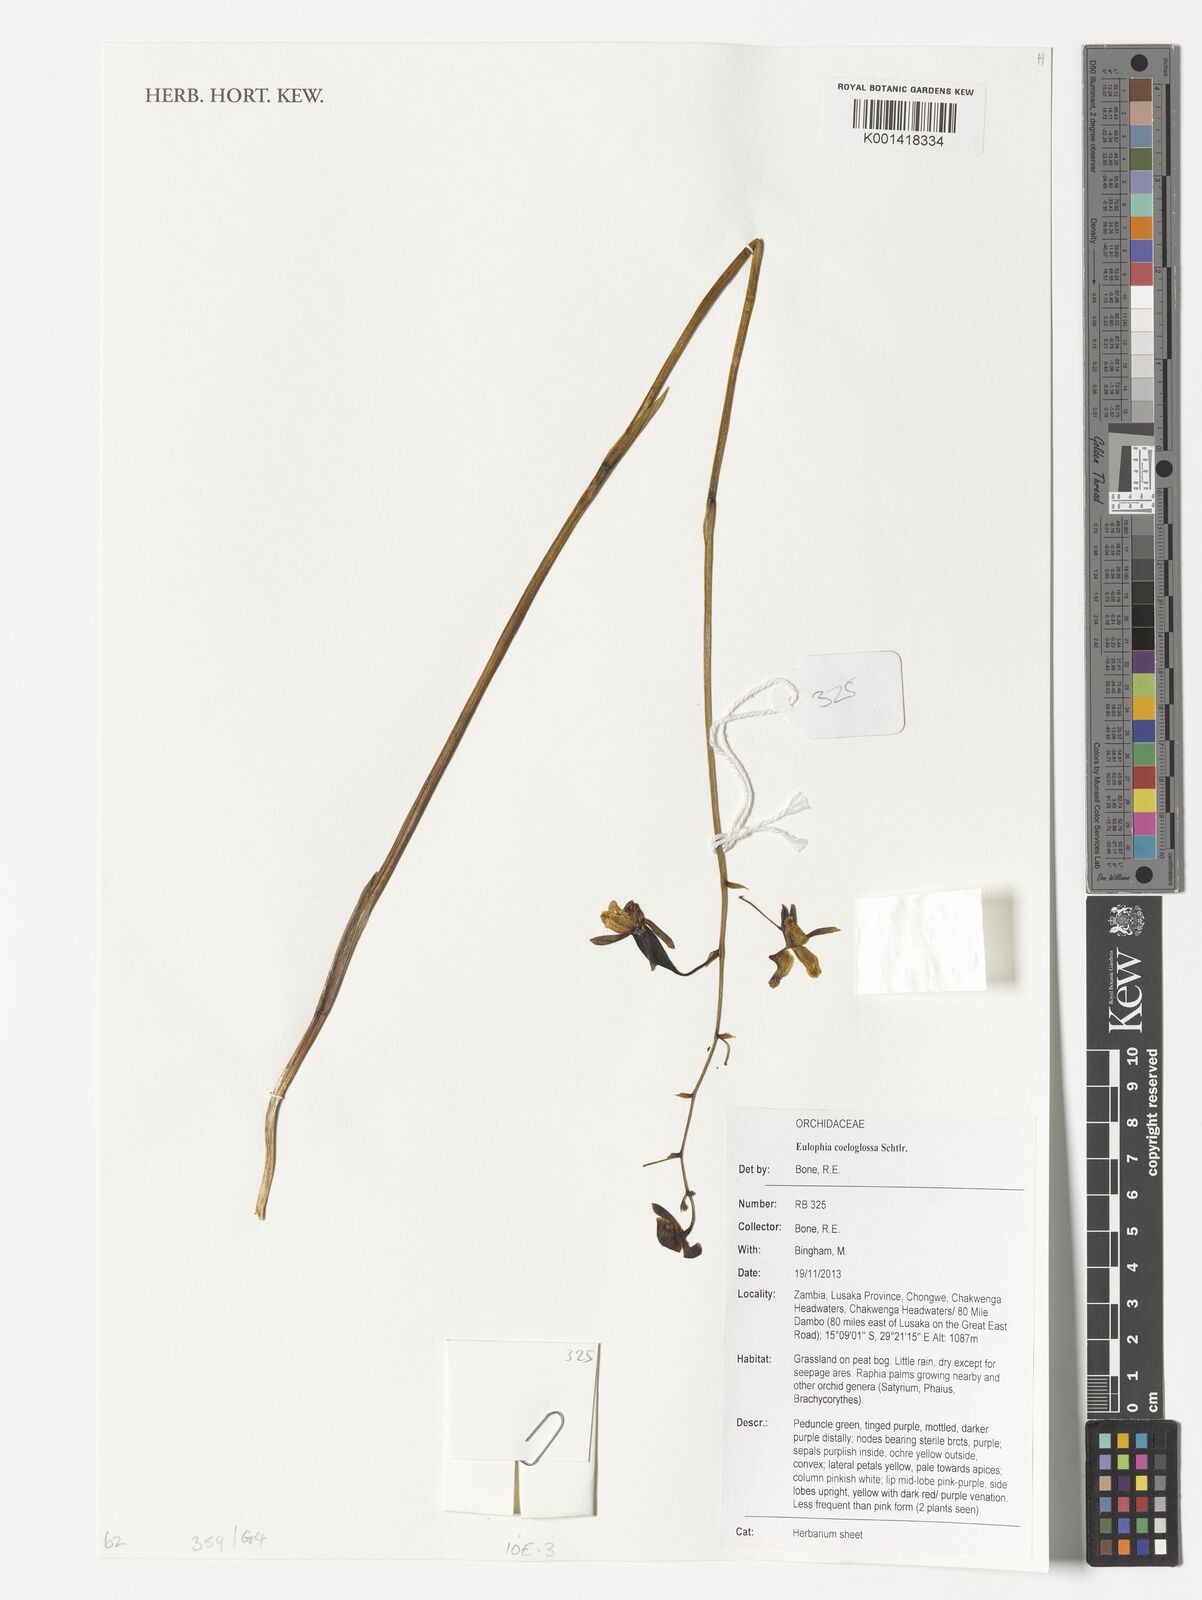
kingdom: Plantae
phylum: Tracheophyta
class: Liliopsida
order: Asparagales
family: Orchidaceae
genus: Eulophia
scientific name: Eulophia coeloglossa
